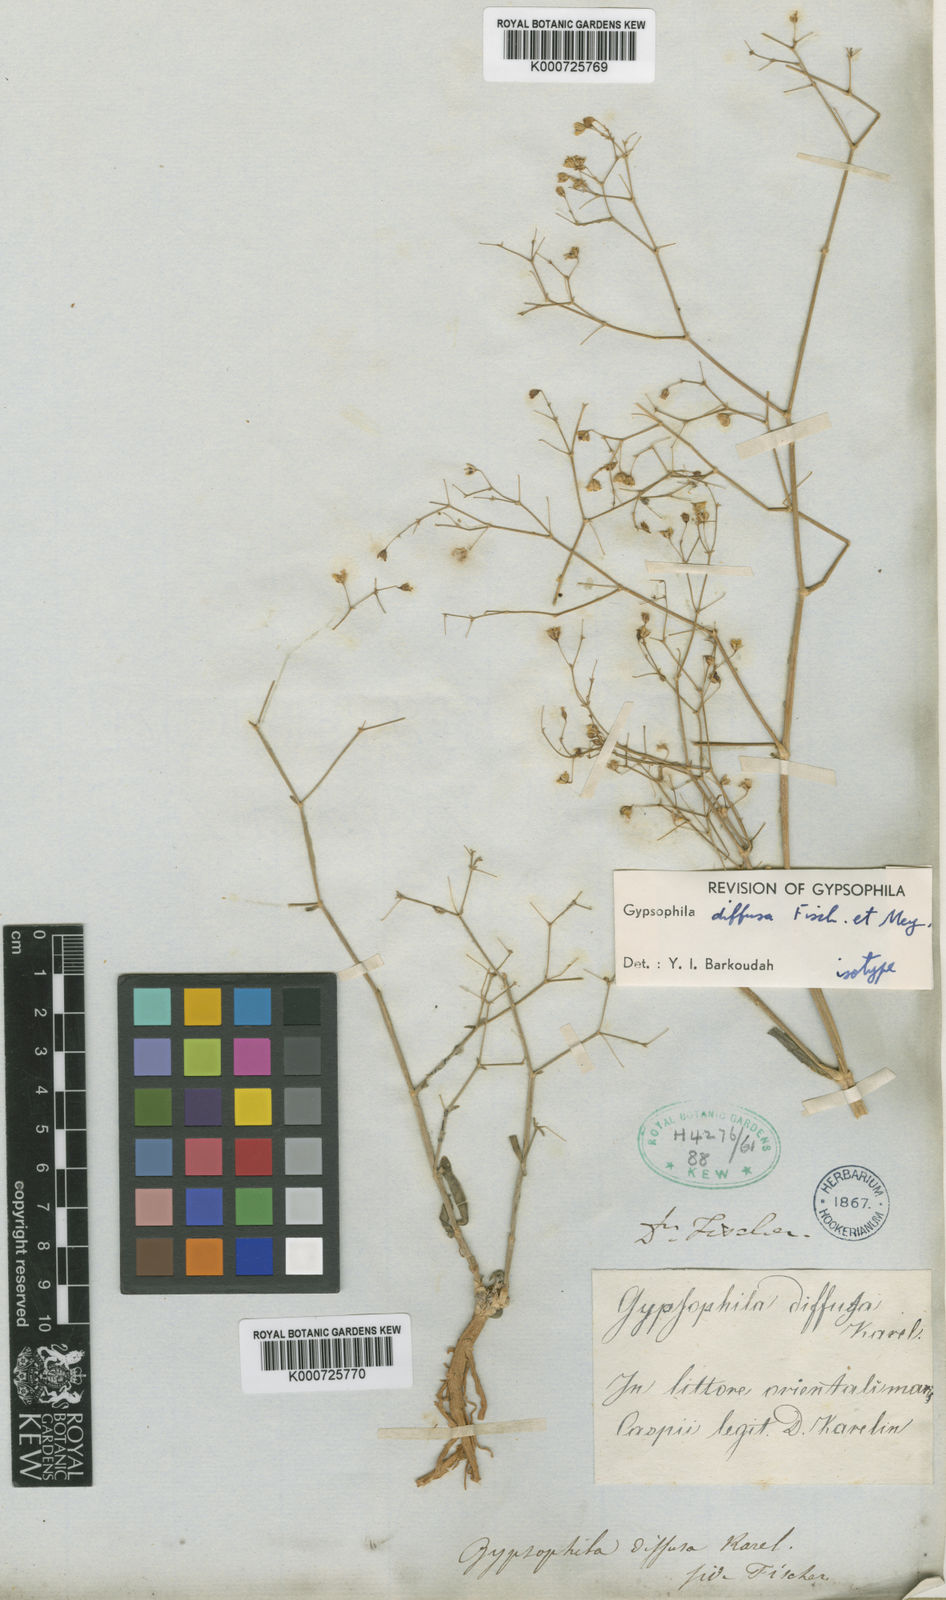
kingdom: Plantae
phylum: Tracheophyta
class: Magnoliopsida
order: Caryophyllales
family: Caryophyllaceae
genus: Gypsophila
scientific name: Gypsophila
